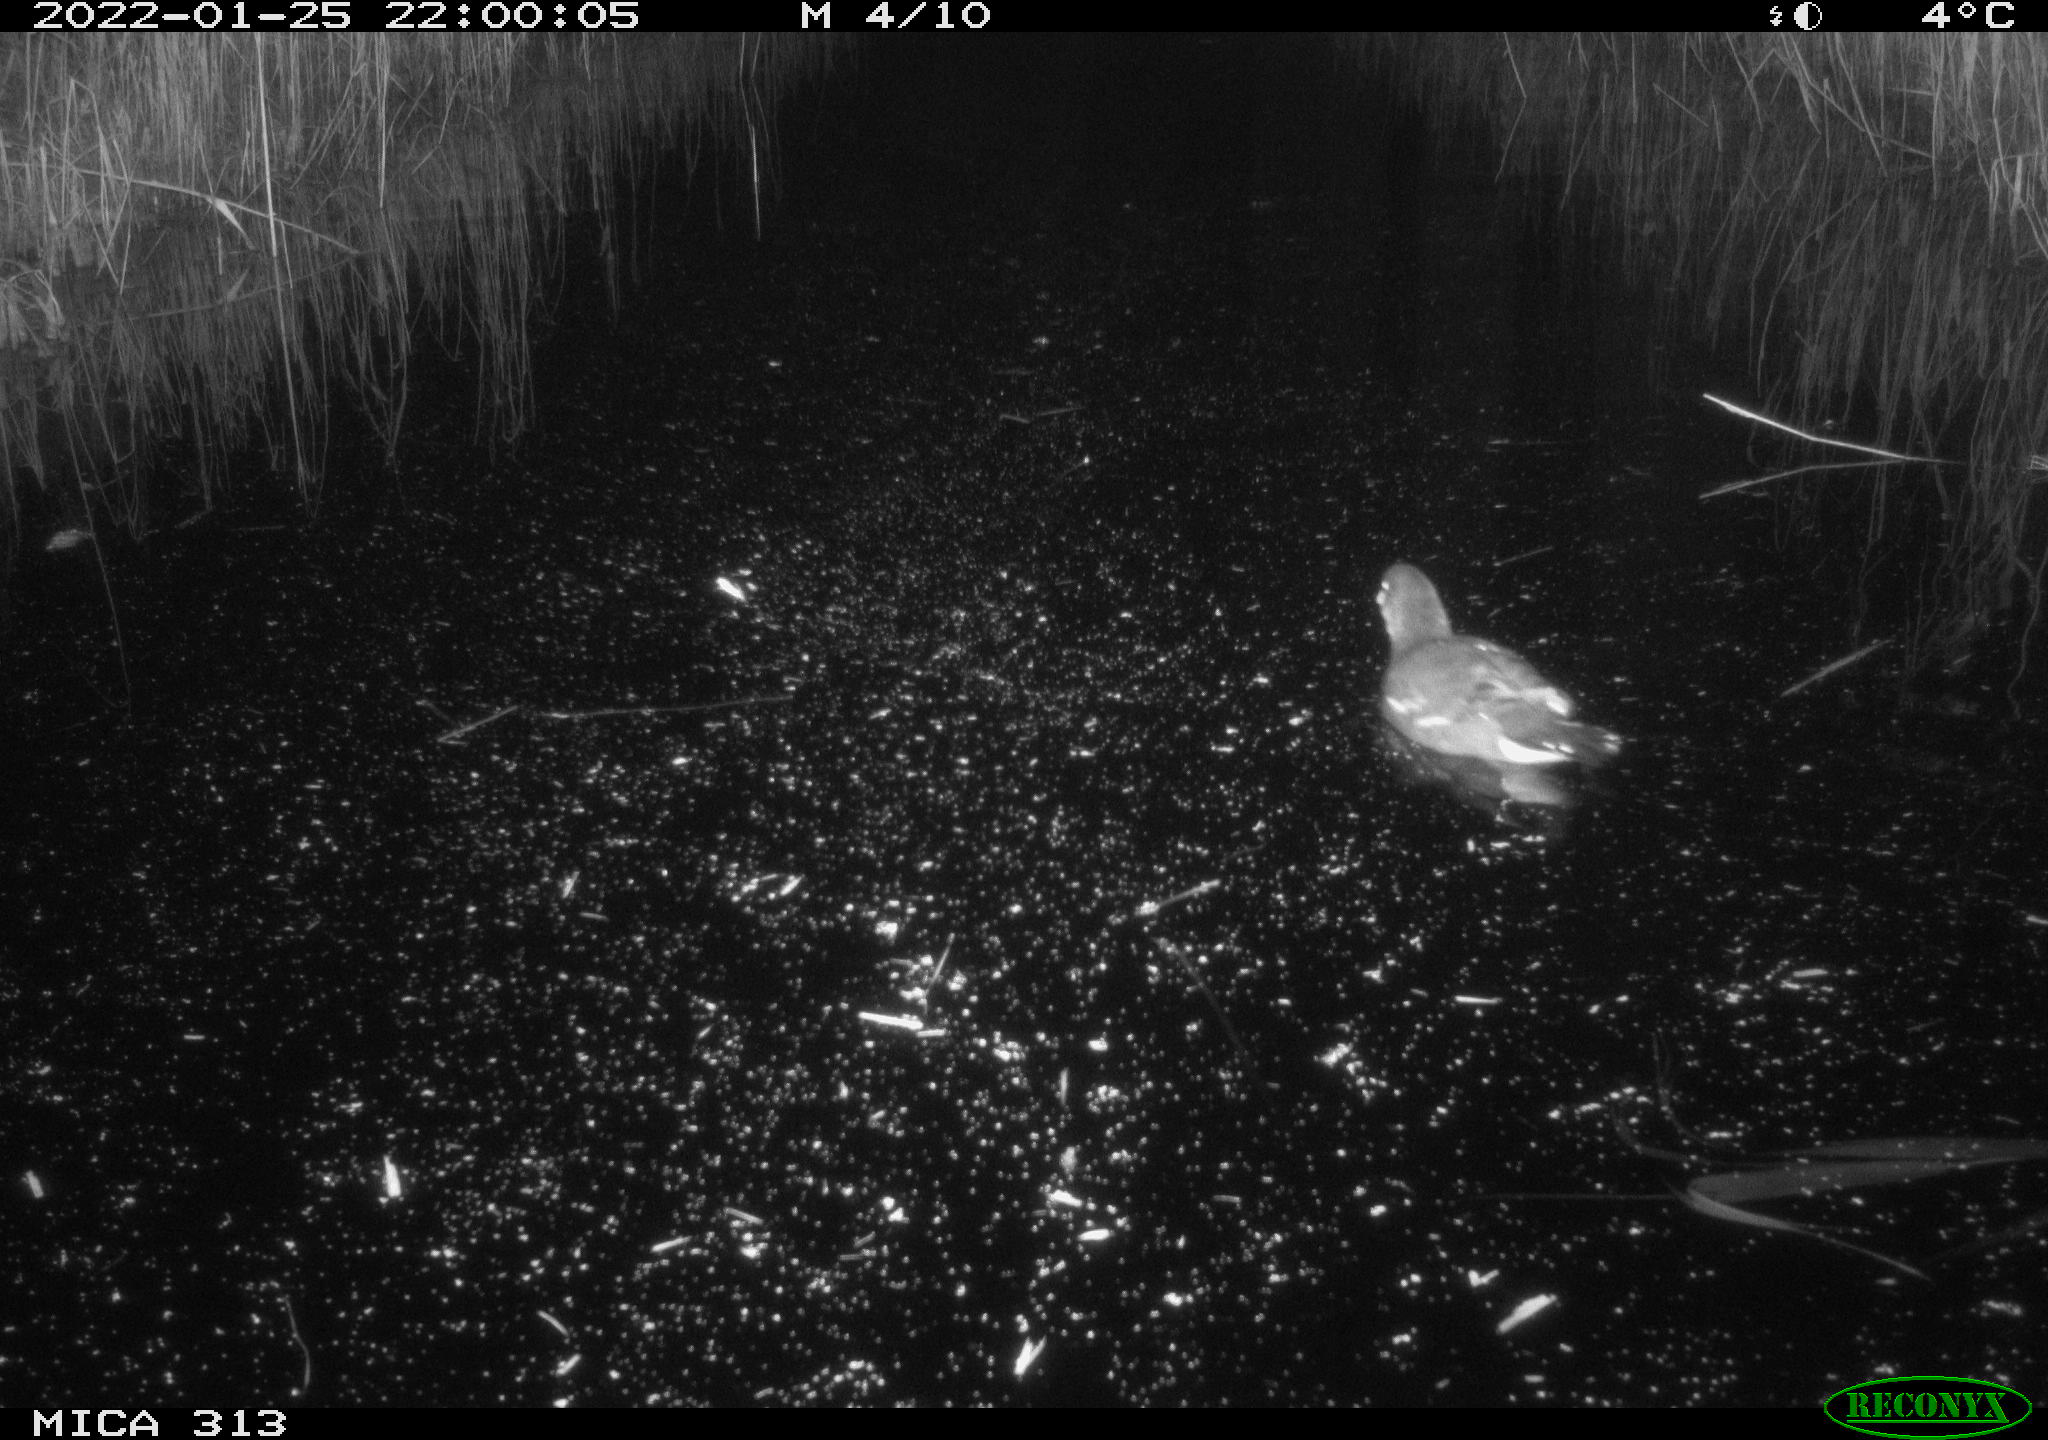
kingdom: Animalia
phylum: Chordata
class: Aves
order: Gruiformes
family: Rallidae
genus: Gallinula
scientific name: Gallinula chloropus
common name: Common moorhen
